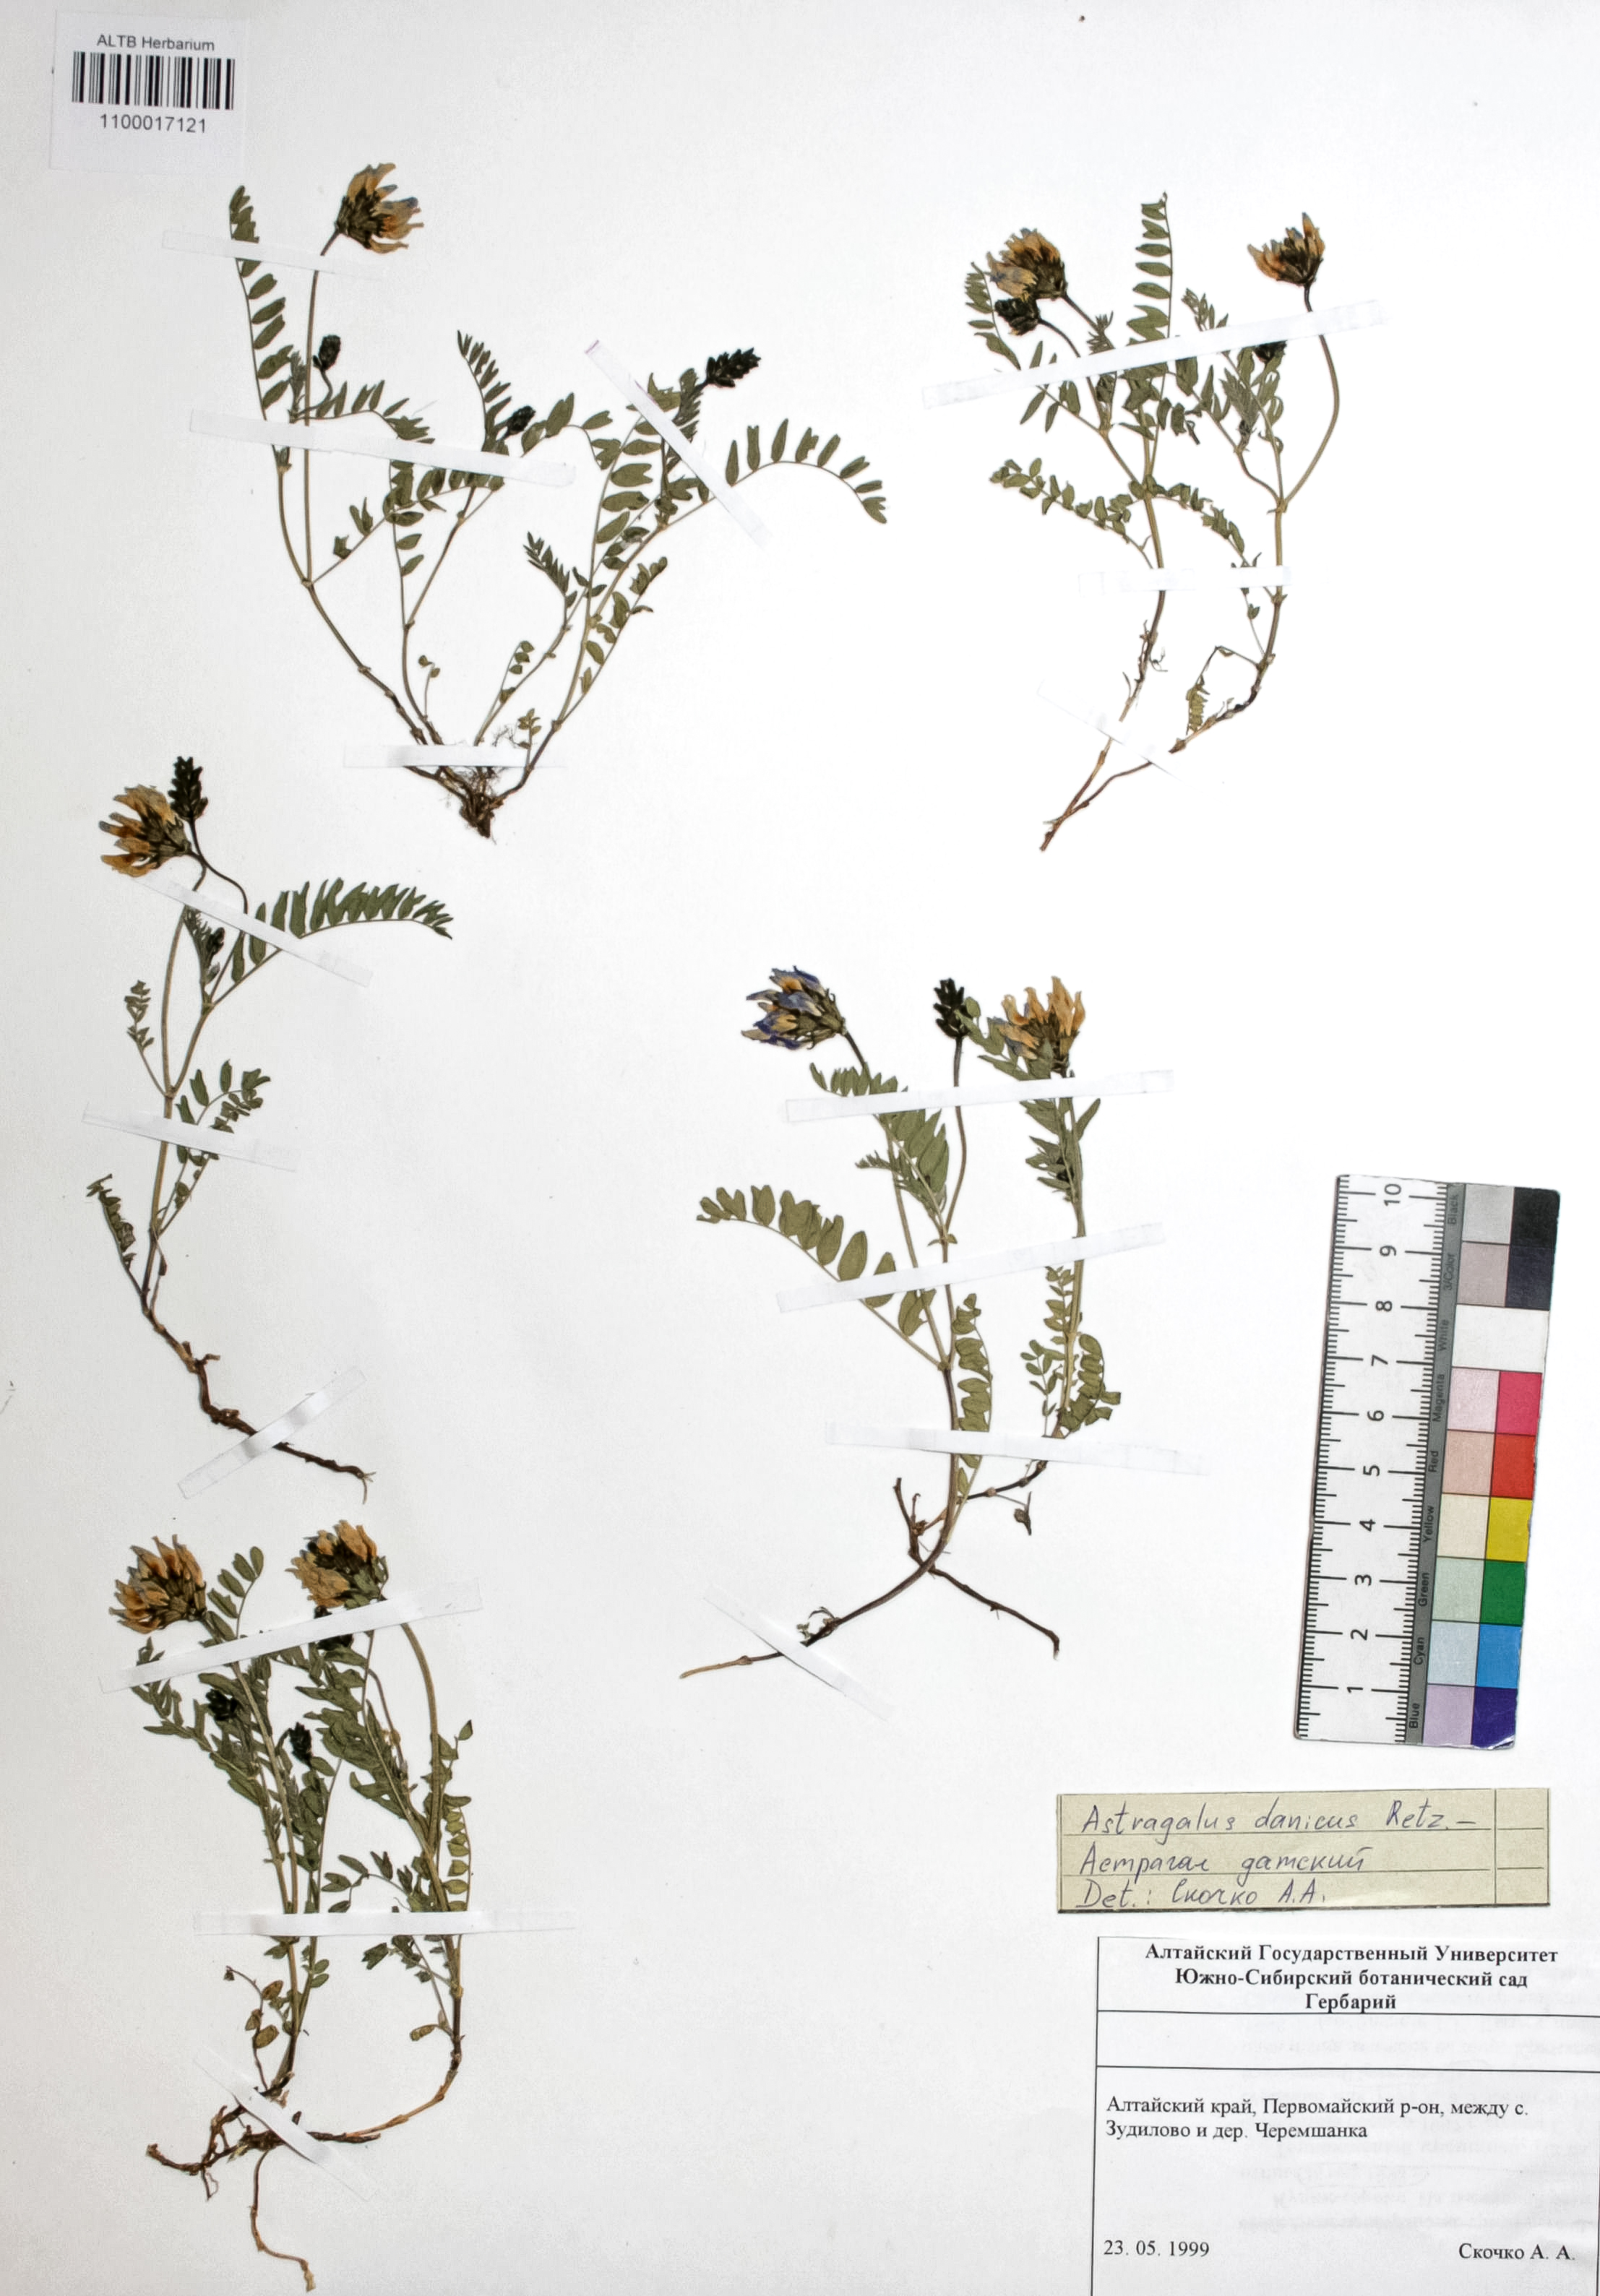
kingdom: Plantae
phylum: Tracheophyta
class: Magnoliopsida
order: Fabales
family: Fabaceae
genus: Astragalus
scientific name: Astragalus danicus
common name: Purple milk-vetch
